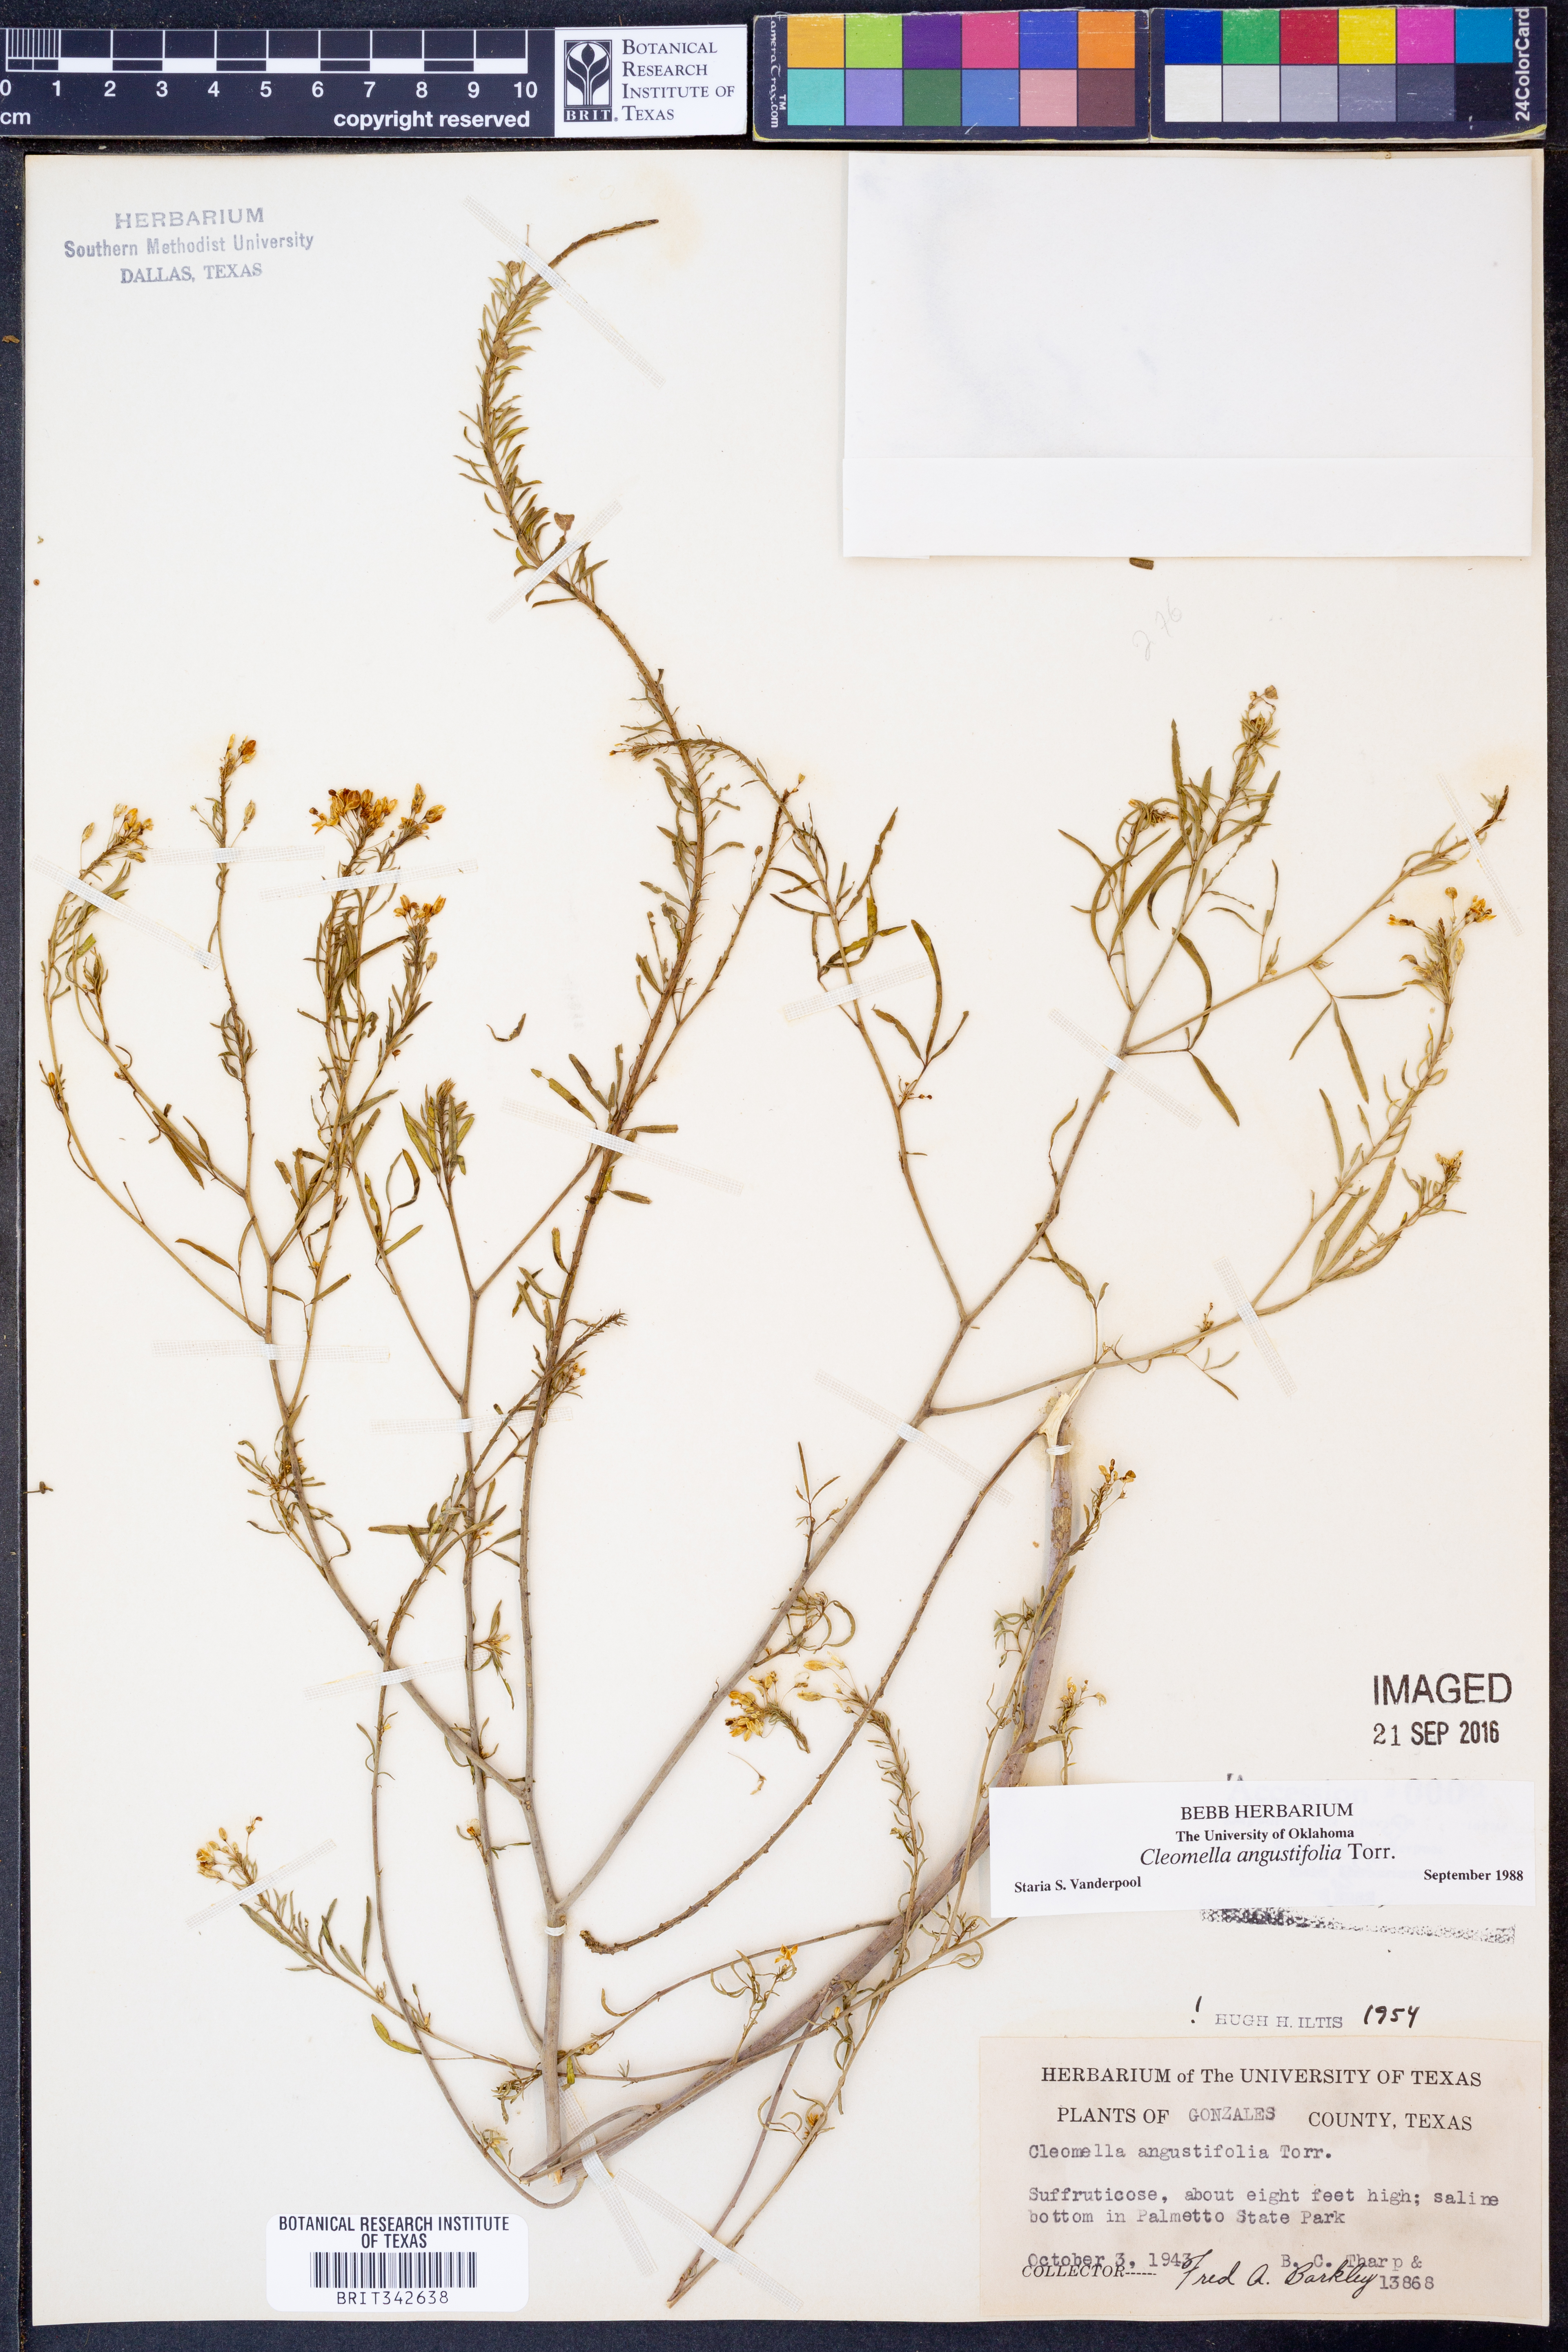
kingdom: Plantae
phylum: Tracheophyta
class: Magnoliopsida
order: Brassicales
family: Cleomaceae
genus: Cleomella
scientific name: Cleomella angustifolia
